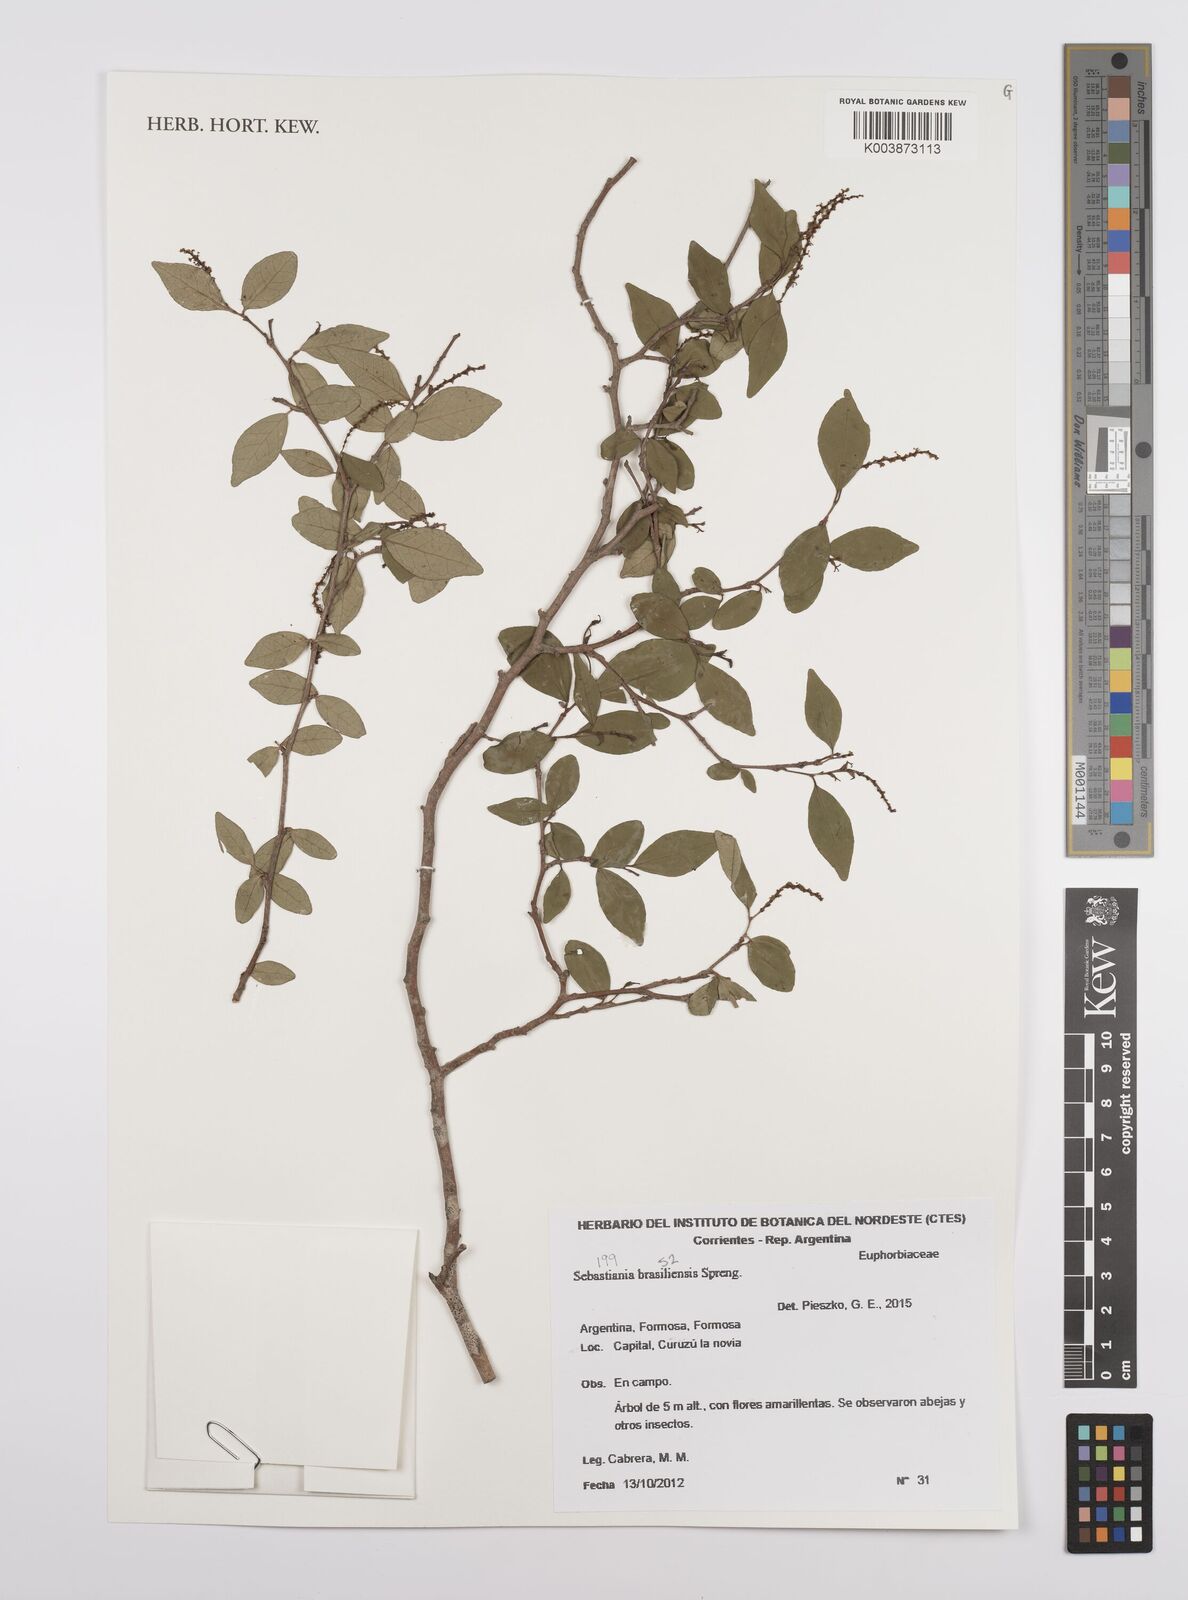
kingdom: Plantae
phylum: Tracheophyta
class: Magnoliopsida
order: Malpighiales
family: Euphorbiaceae
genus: Sebastiania
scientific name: Sebastiania brasiliensis
